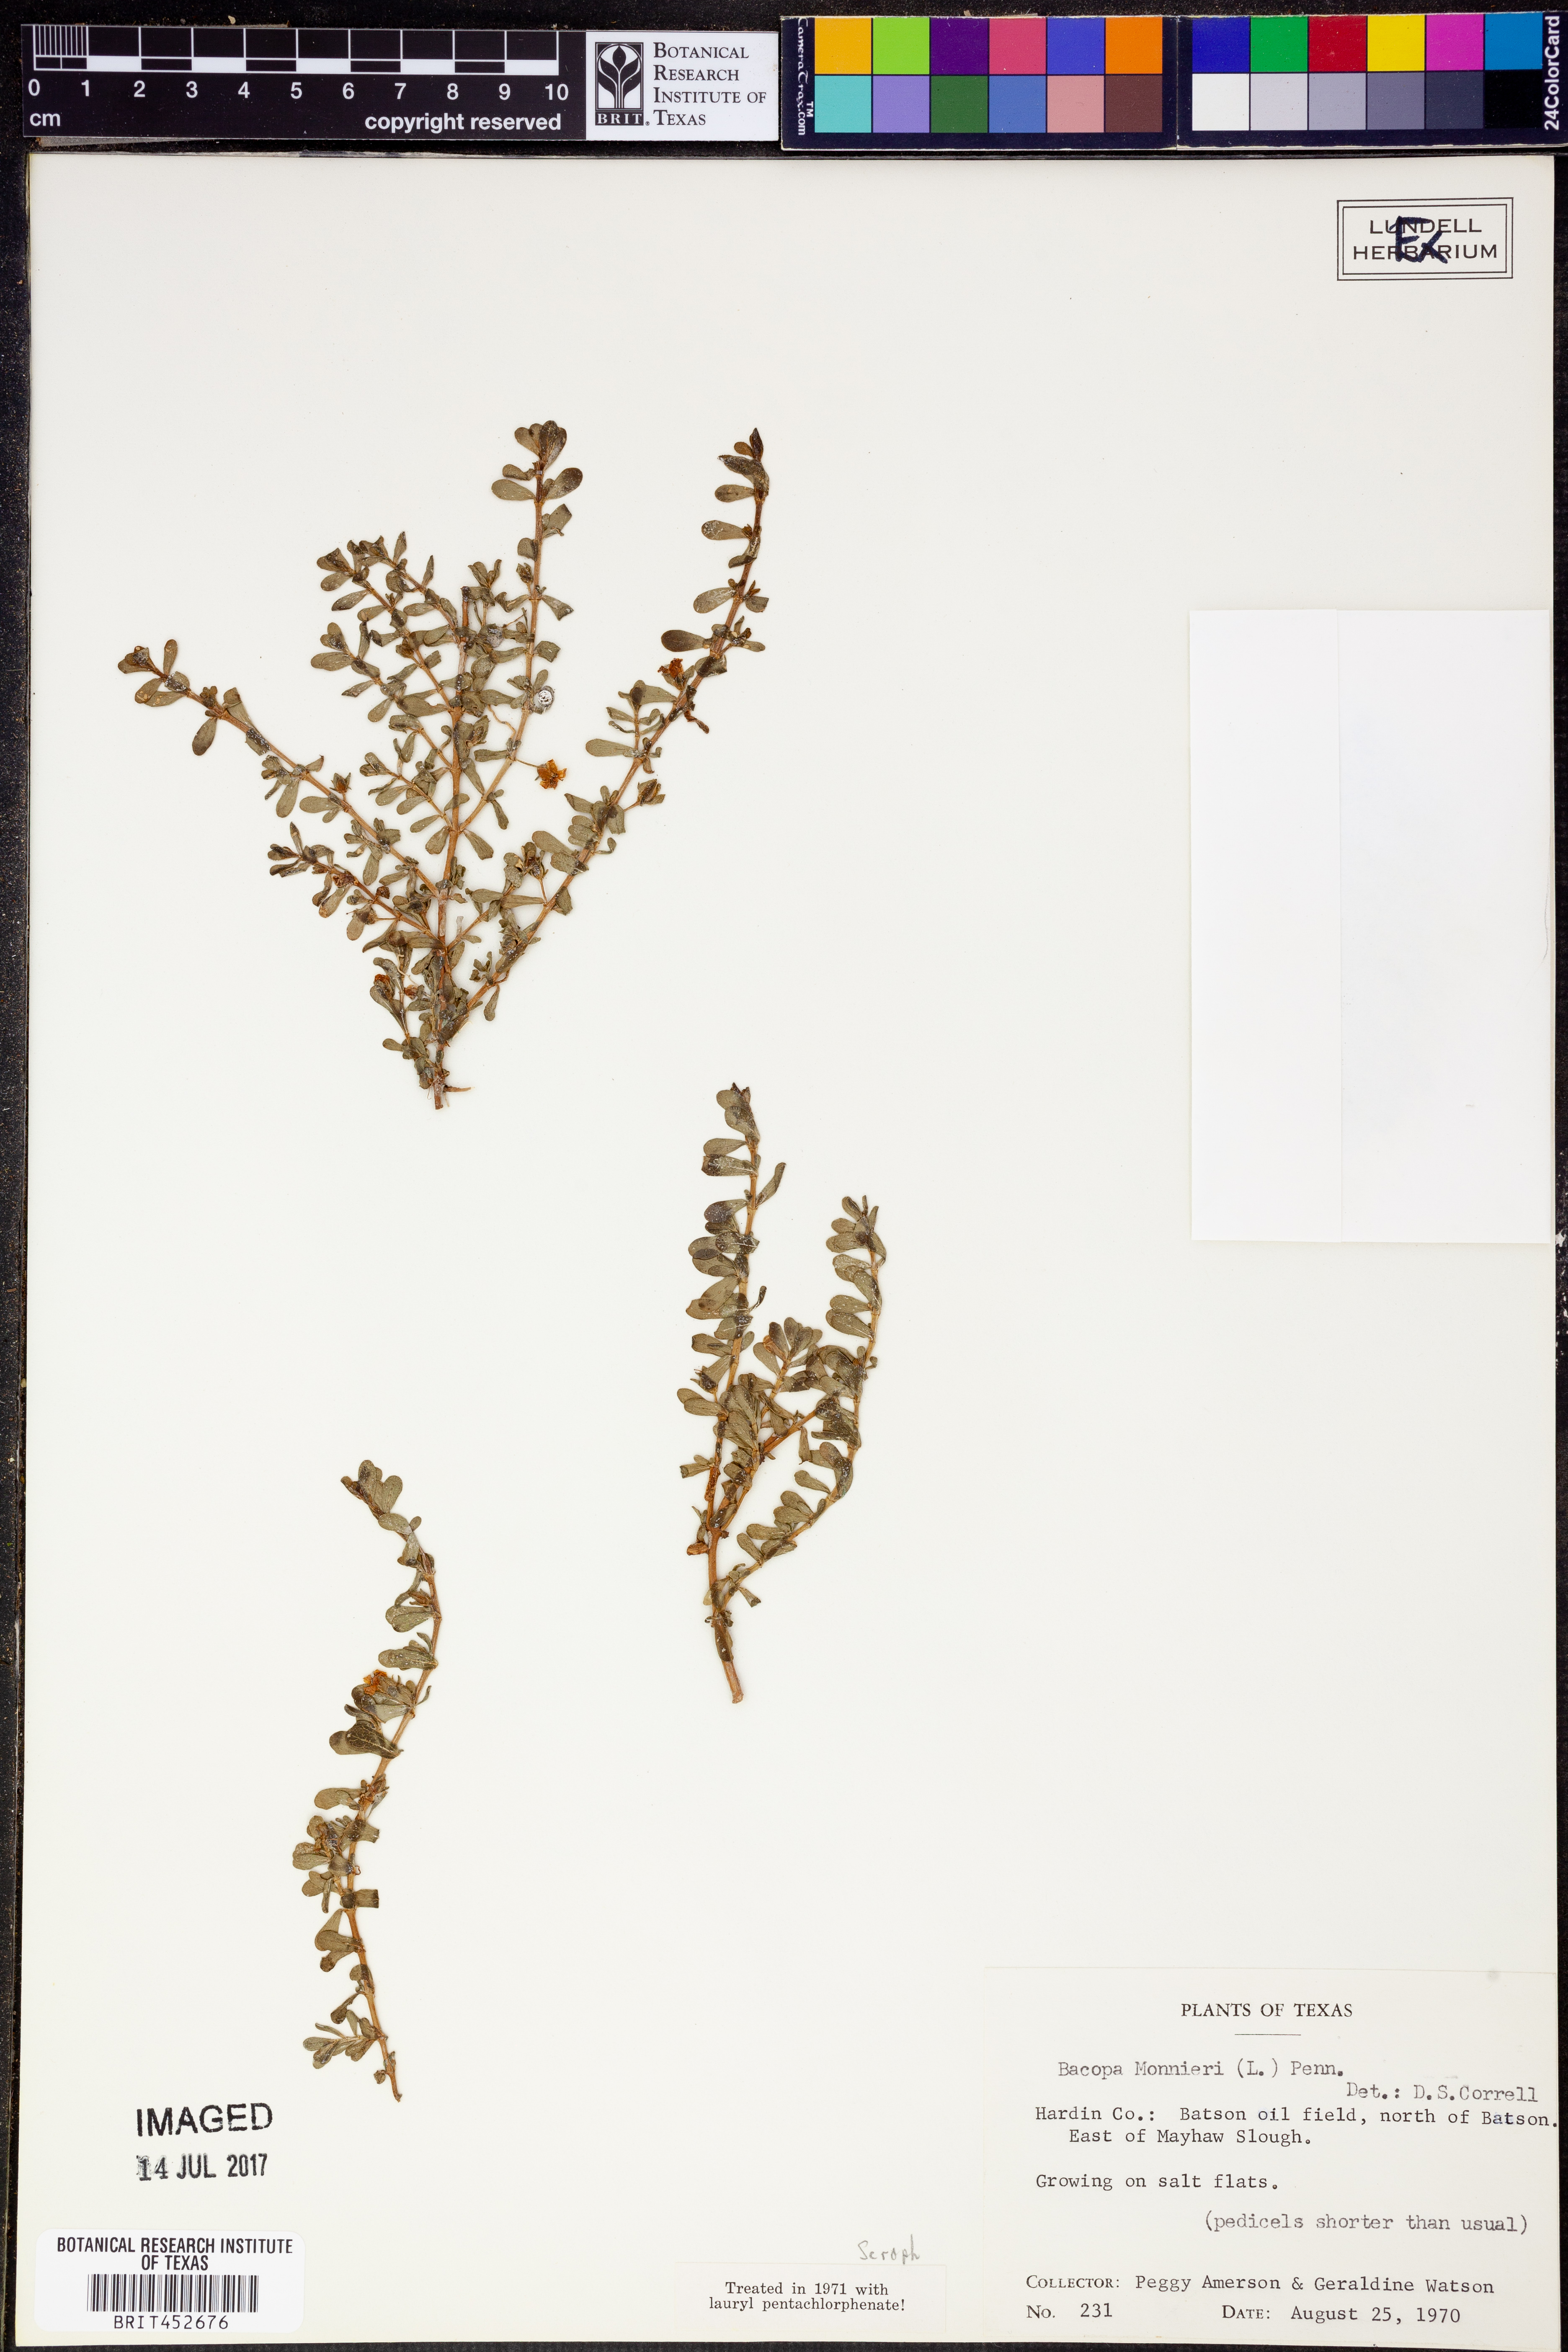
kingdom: Plantae
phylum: Tracheophyta
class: Magnoliopsida
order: Lamiales
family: Plantaginaceae
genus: Bacopa
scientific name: Bacopa monnieri
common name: Indian-pennywort
